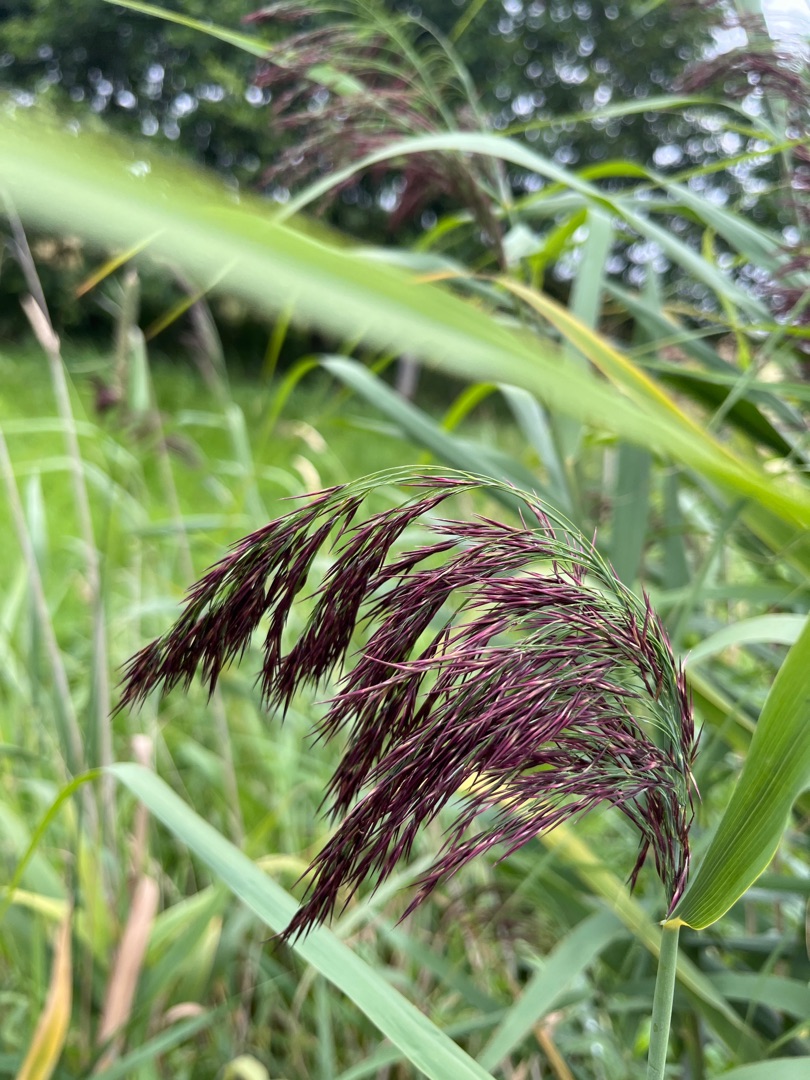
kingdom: Plantae
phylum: Tracheophyta
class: Liliopsida
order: Poales
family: Poaceae
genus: Phragmites
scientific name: Phragmites australis
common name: Tagrør
